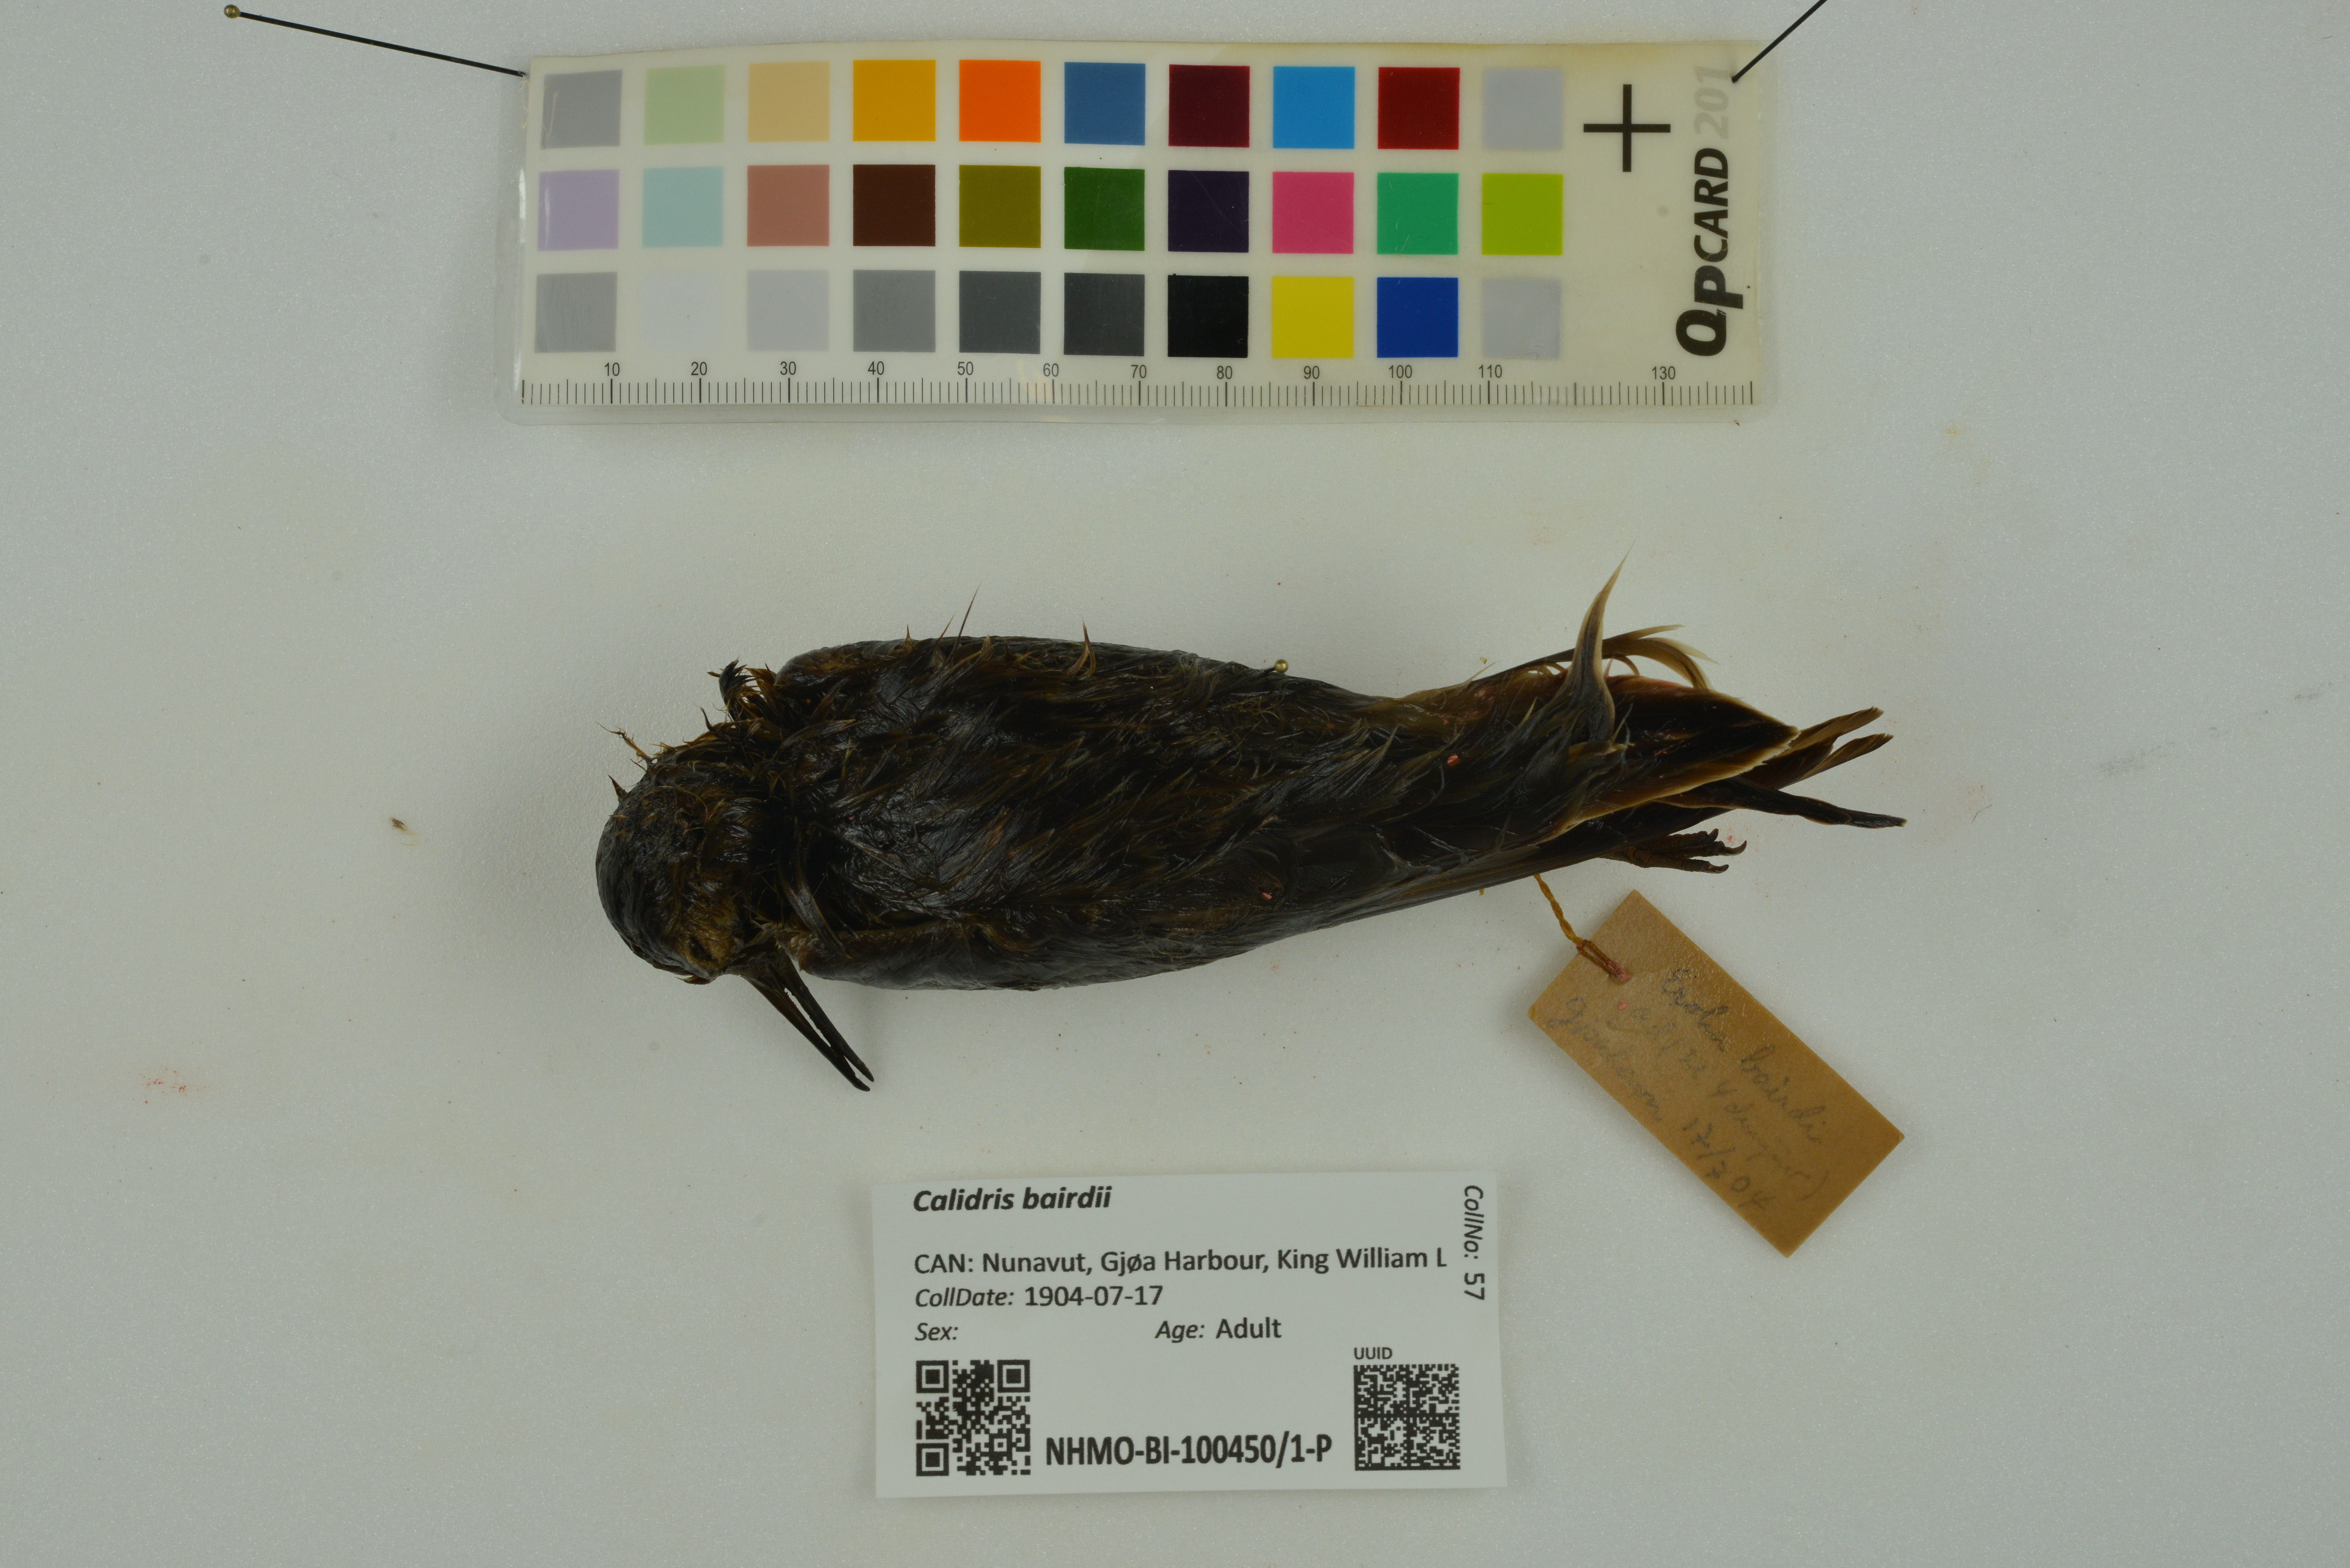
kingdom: Animalia
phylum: Chordata
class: Aves
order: Charadriiformes
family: Scolopacidae
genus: Calidris
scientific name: Calidris bairdii
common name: Baird's sandpiper
